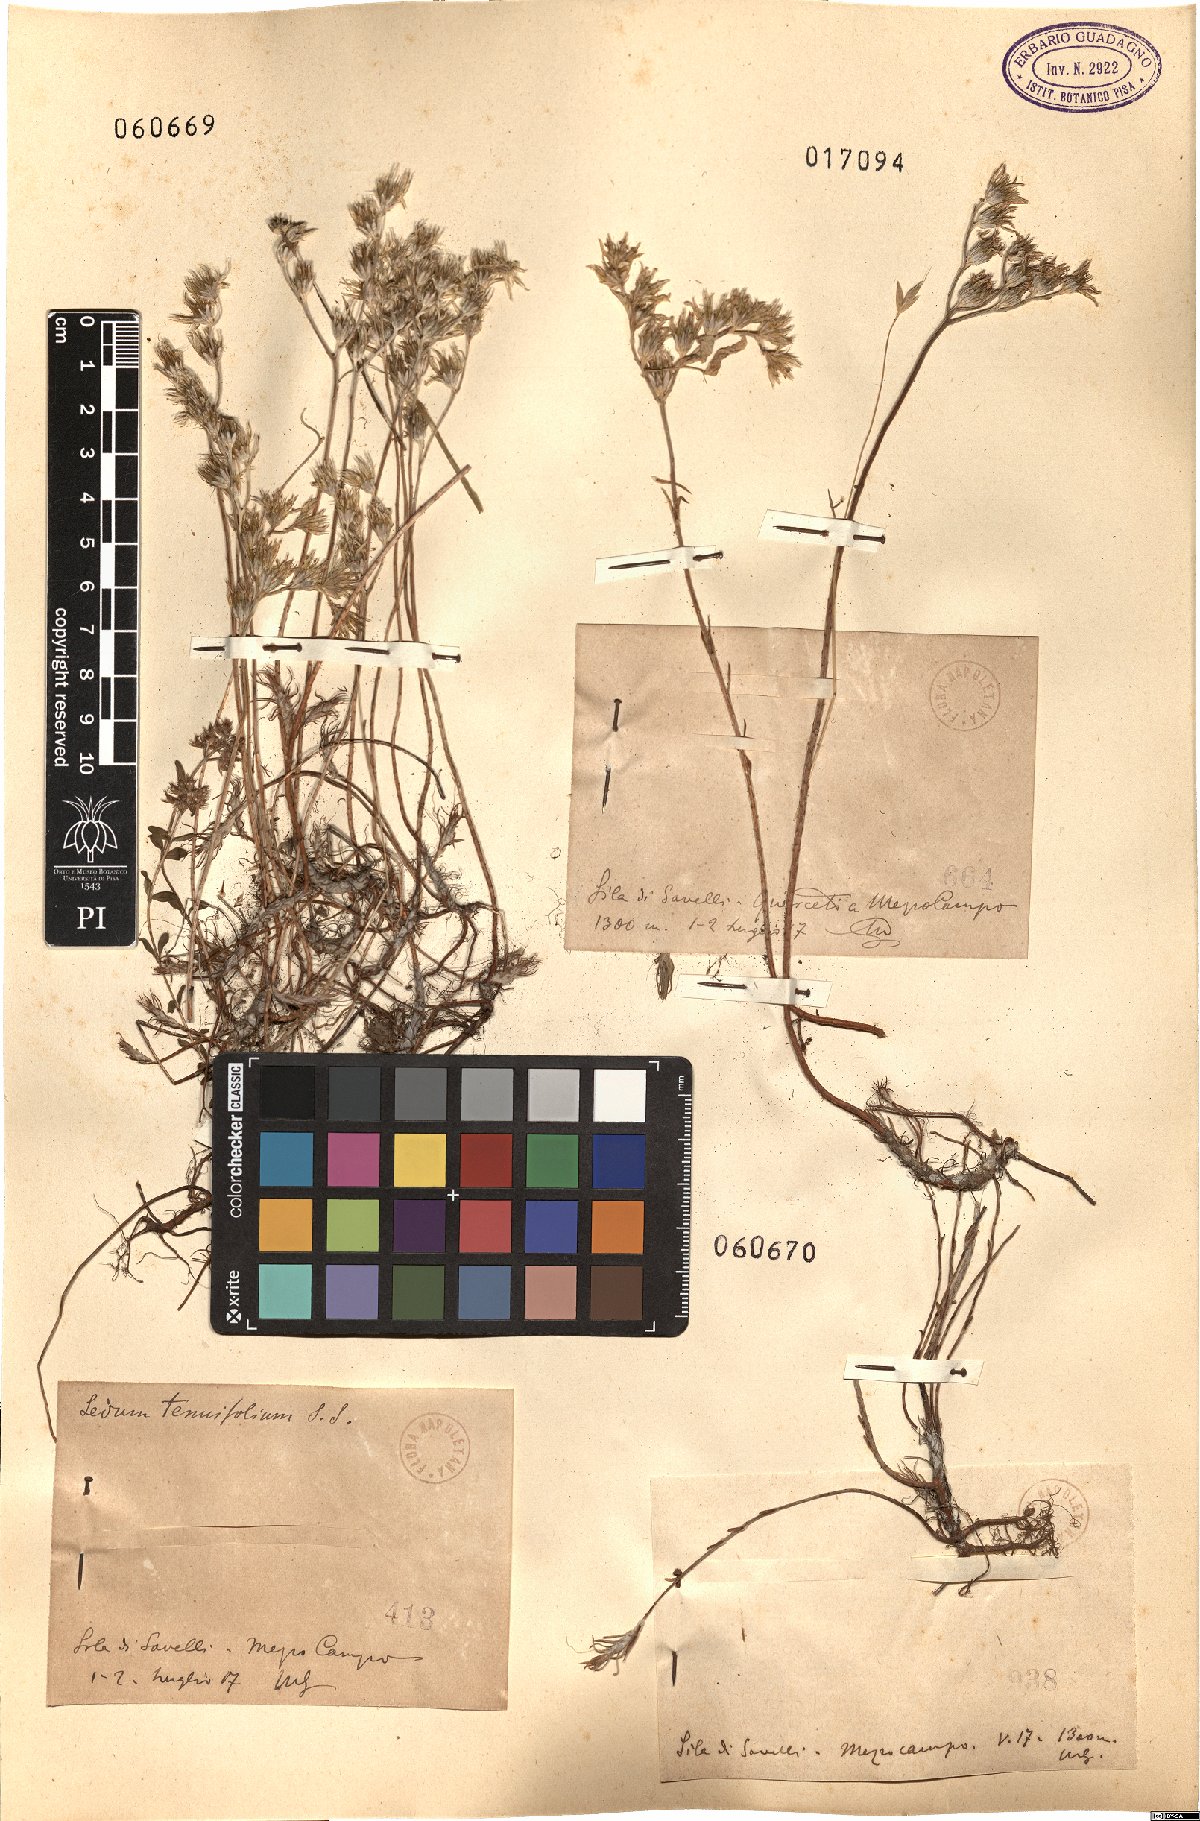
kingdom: Plantae
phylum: Tracheophyta
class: Magnoliopsida
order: Saxifragales
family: Crassulaceae
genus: Sedum
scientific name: Sedum
